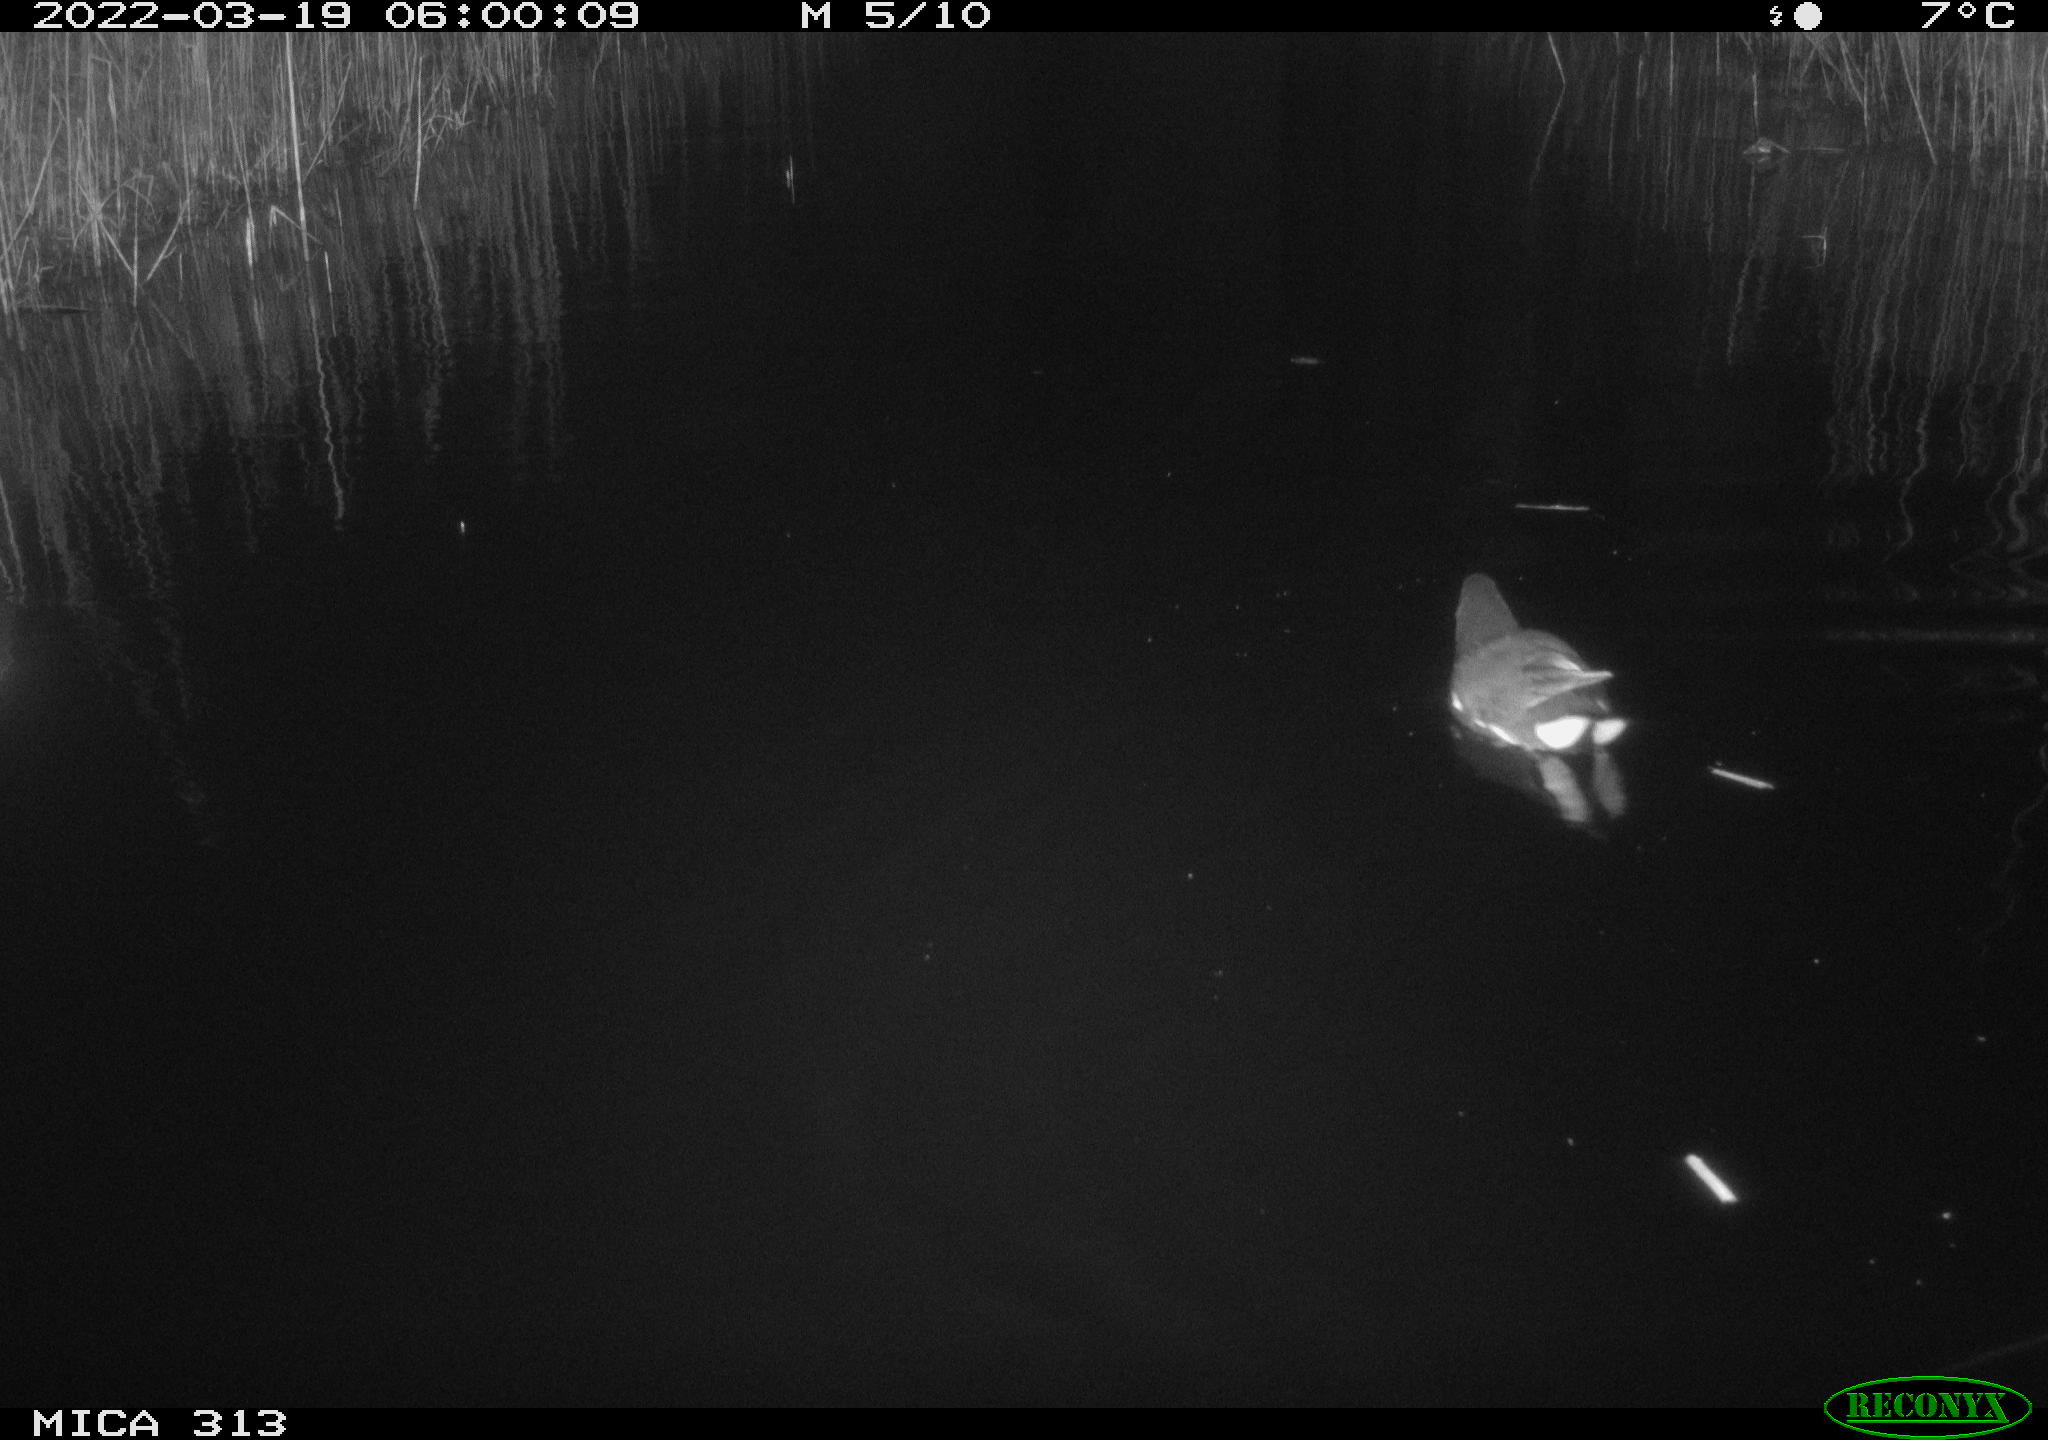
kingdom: Animalia
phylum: Chordata
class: Aves
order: Gruiformes
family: Rallidae
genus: Gallinula
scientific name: Gallinula chloropus
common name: Common moorhen
